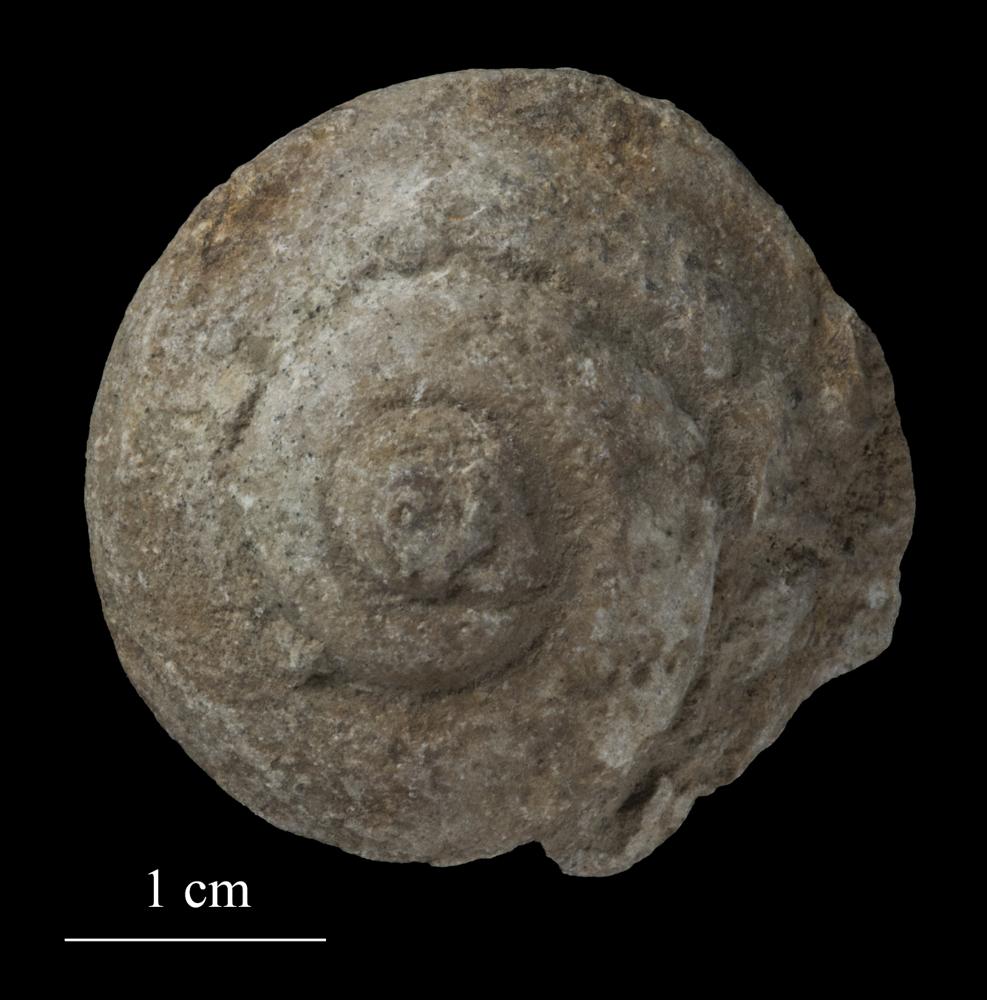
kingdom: Animalia
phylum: Mollusca
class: Gastropoda
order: Pleurotomariida
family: Pleurotomariidae
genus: Pleurotomaria
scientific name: Pleurotomaria
